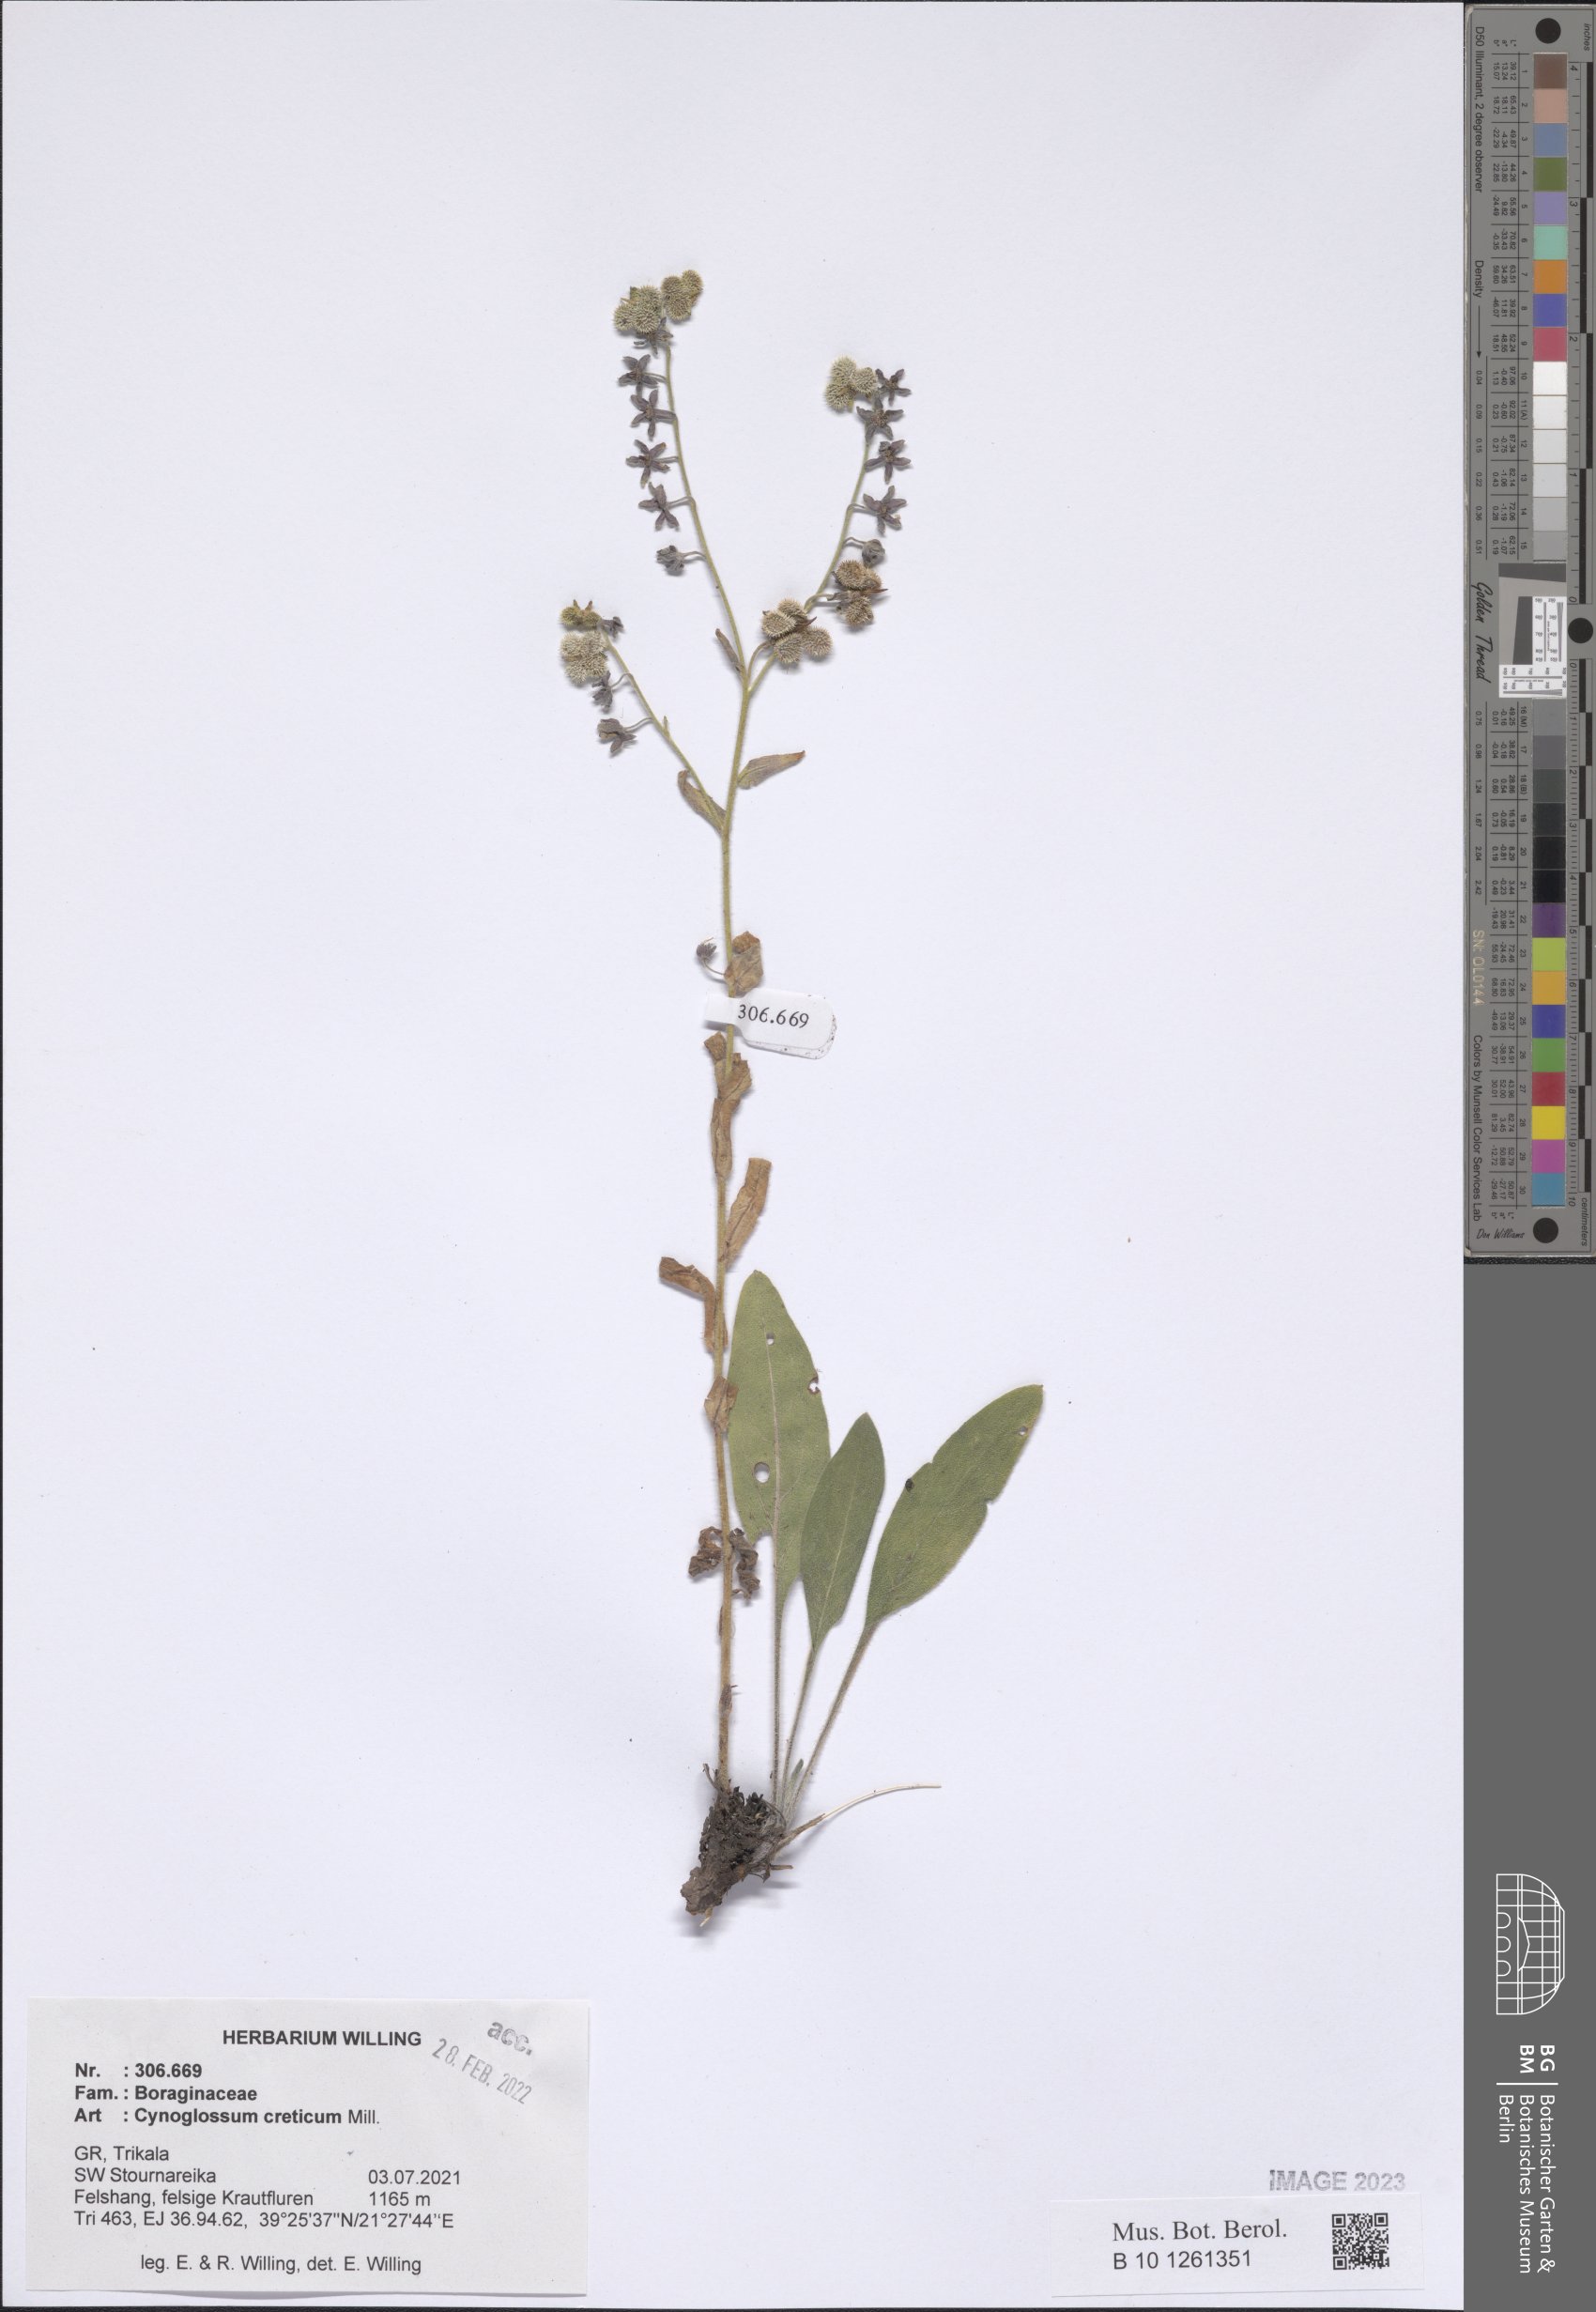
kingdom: Plantae
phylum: Tracheophyta
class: Magnoliopsida
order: Boraginales
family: Boraginaceae
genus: Cynoglossum
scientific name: Cynoglossum creticum
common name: Blue hound's tongue
